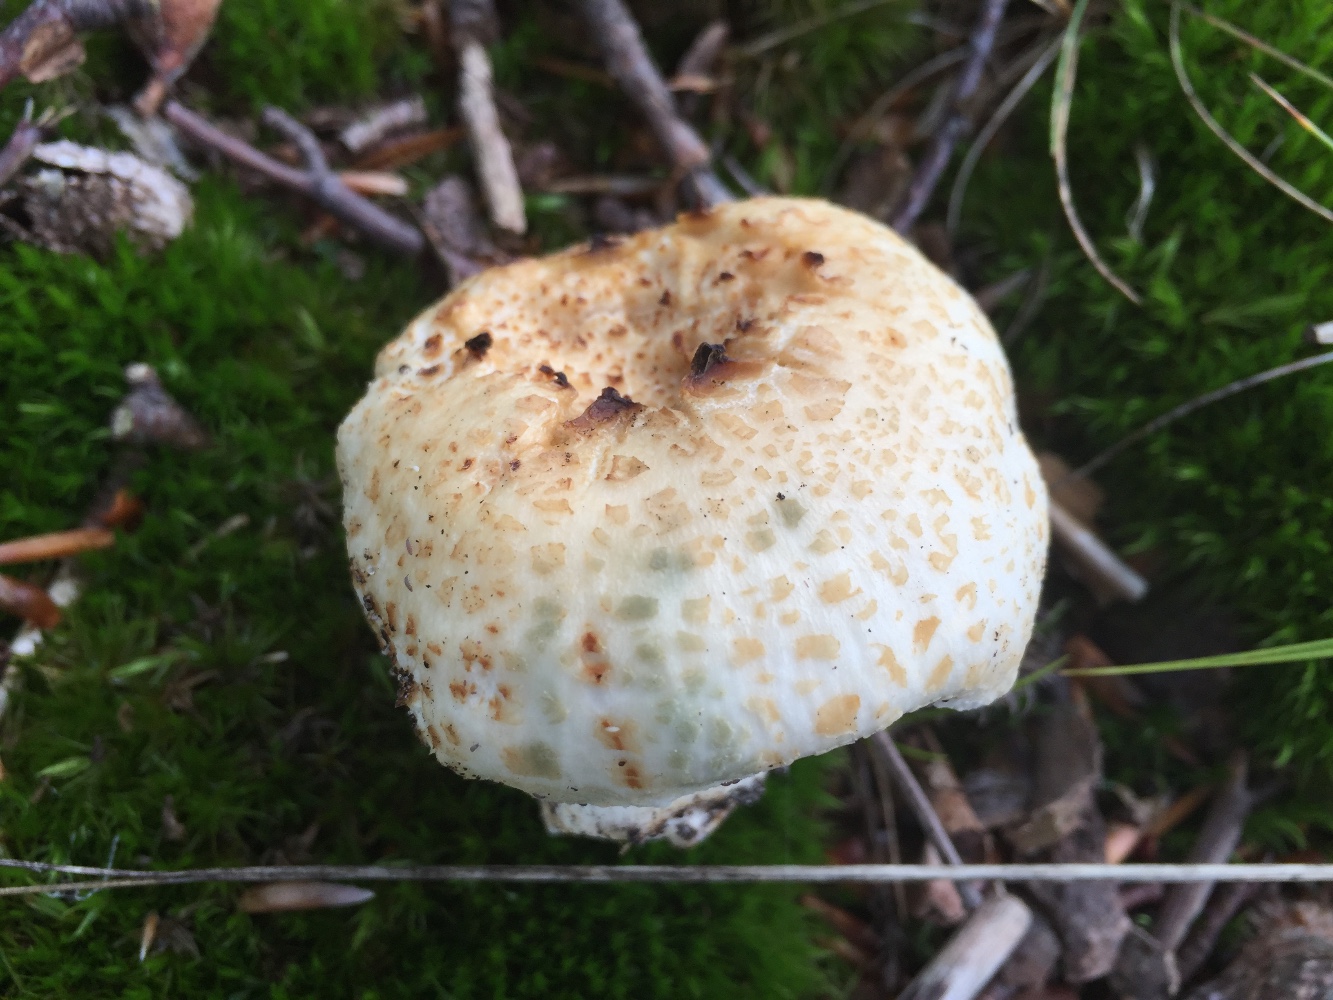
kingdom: Fungi
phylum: Basidiomycota
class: Agaricomycetes
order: Russulales
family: Russulaceae
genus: Russula
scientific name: Russula virescens
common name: spanskgrøn skørhat
